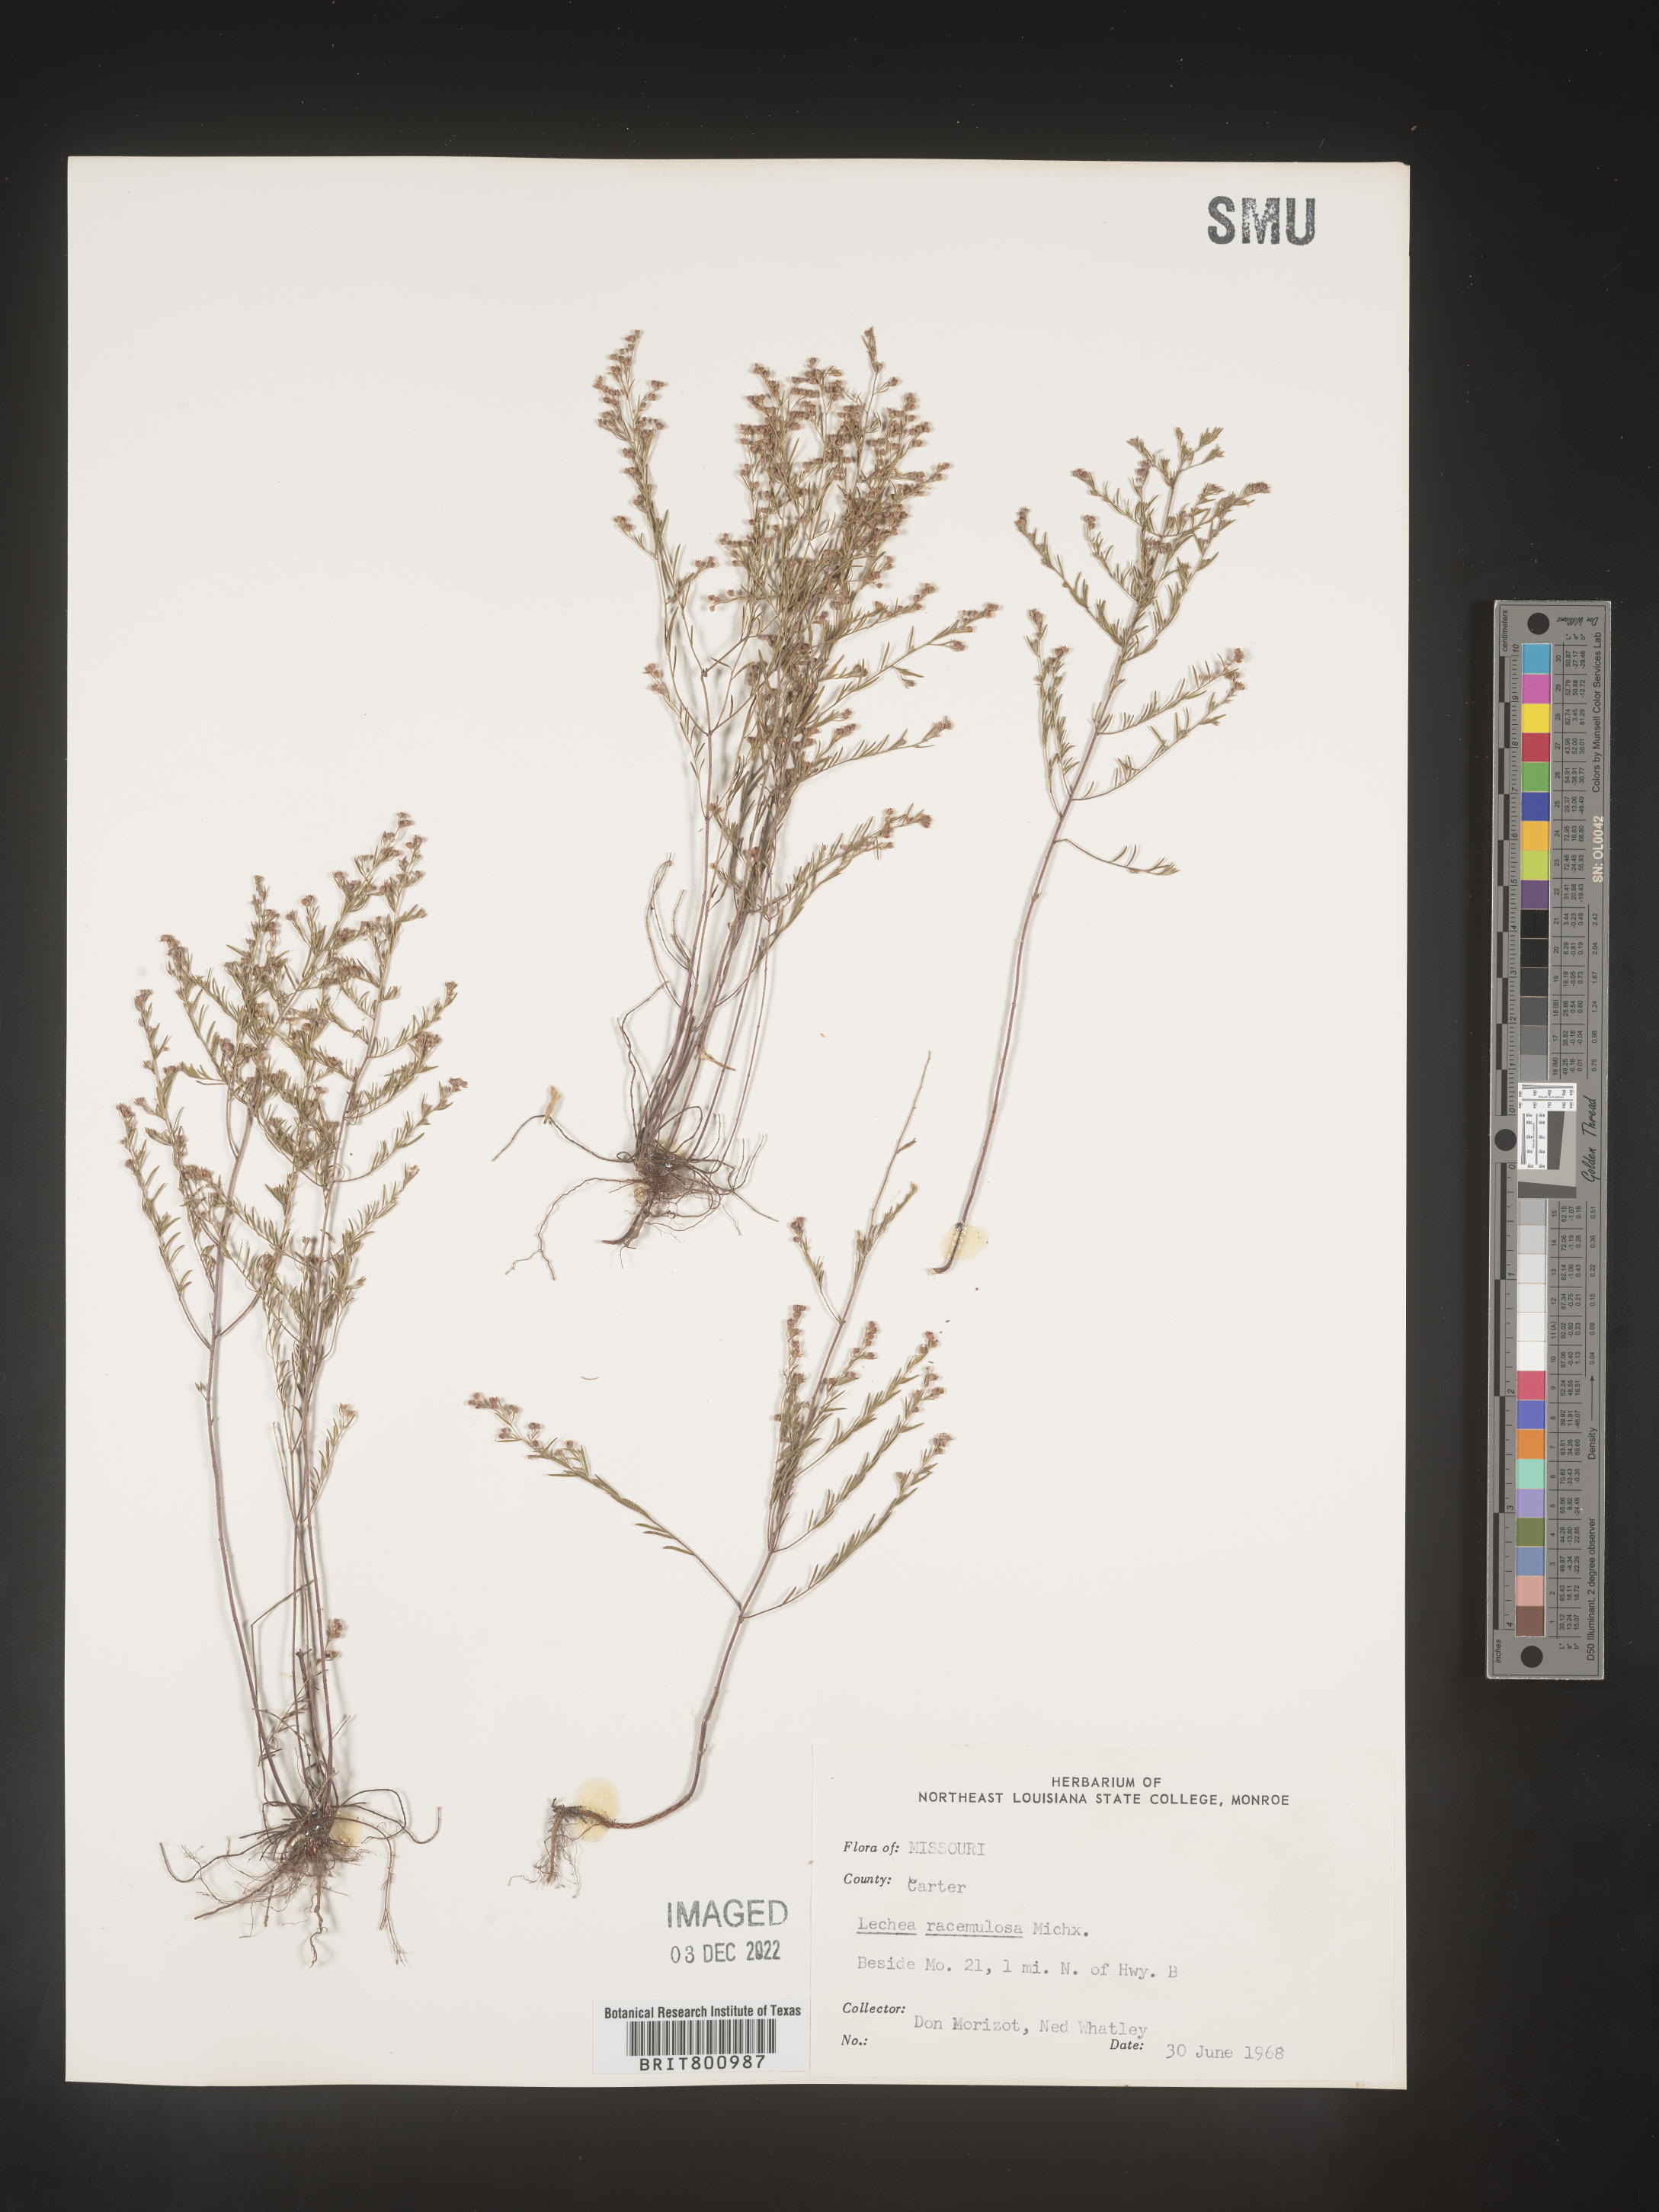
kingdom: Plantae
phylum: Tracheophyta
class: Magnoliopsida
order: Malvales
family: Cistaceae
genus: Lechea
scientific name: Lechea racemulosa
